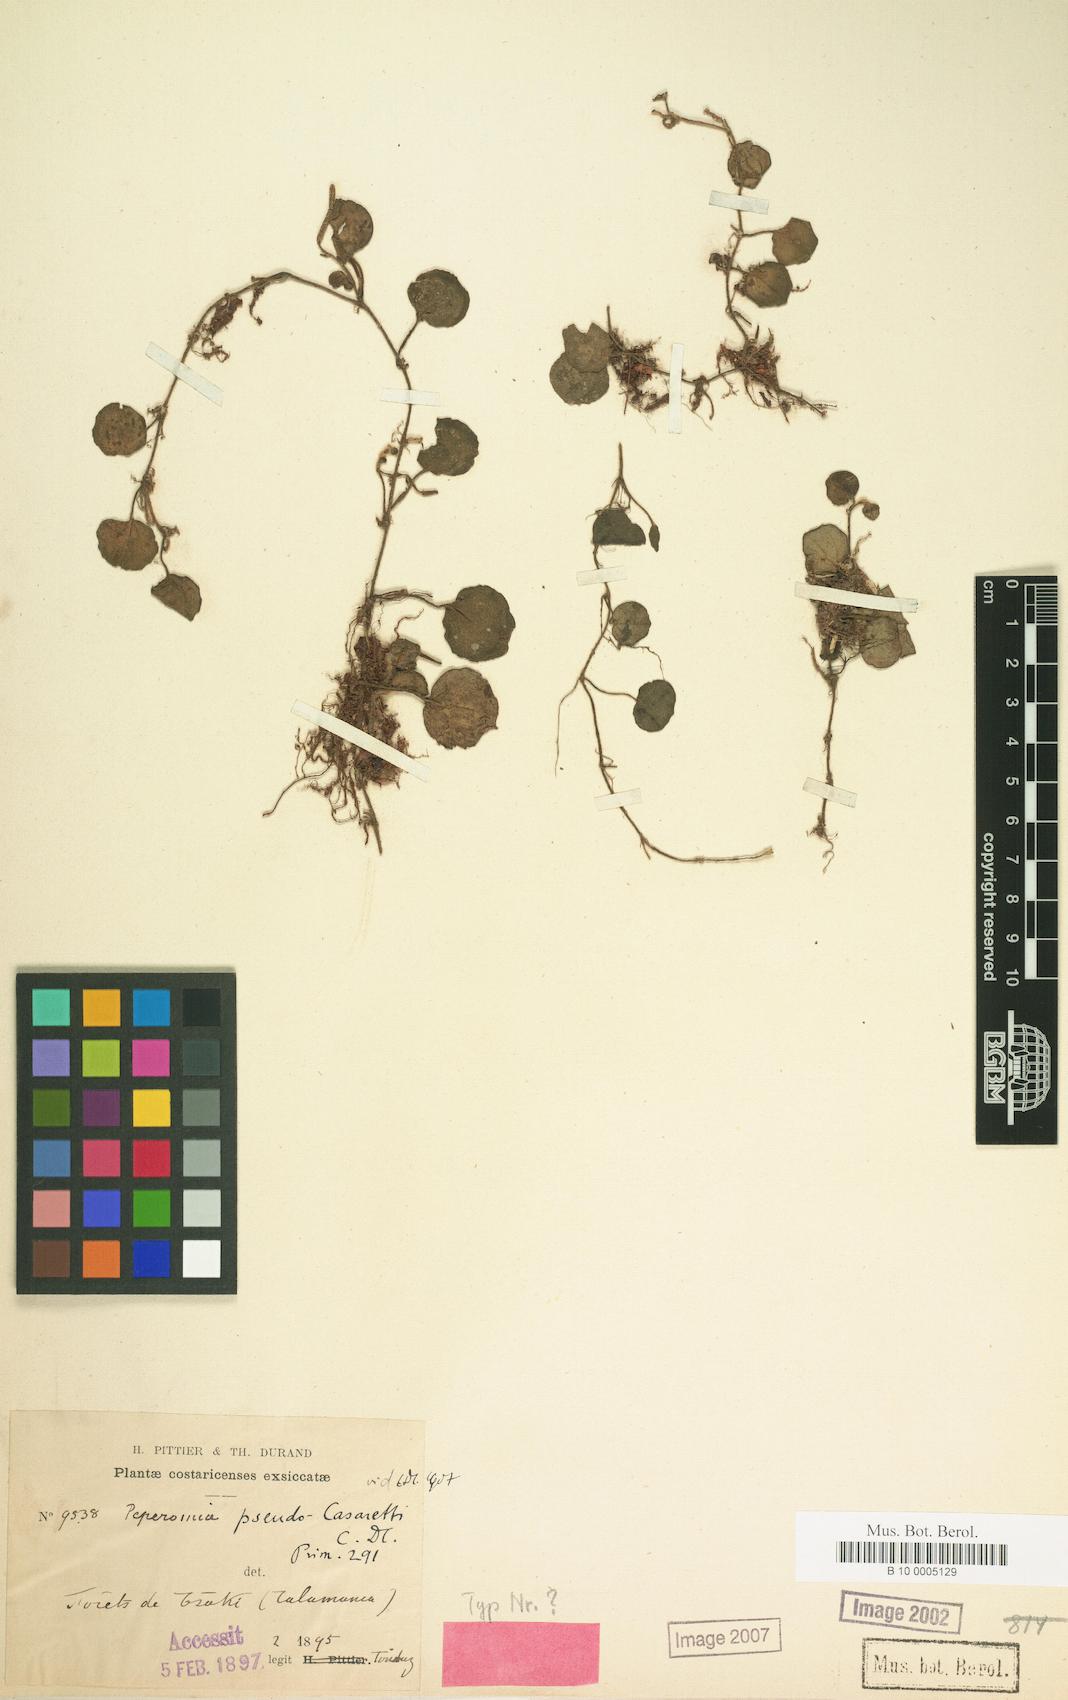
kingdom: Plantae
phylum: Tracheophyta
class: Magnoliopsida
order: Piperales
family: Piperaceae
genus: Peperomia
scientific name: Peperomia pseudocasaretti
